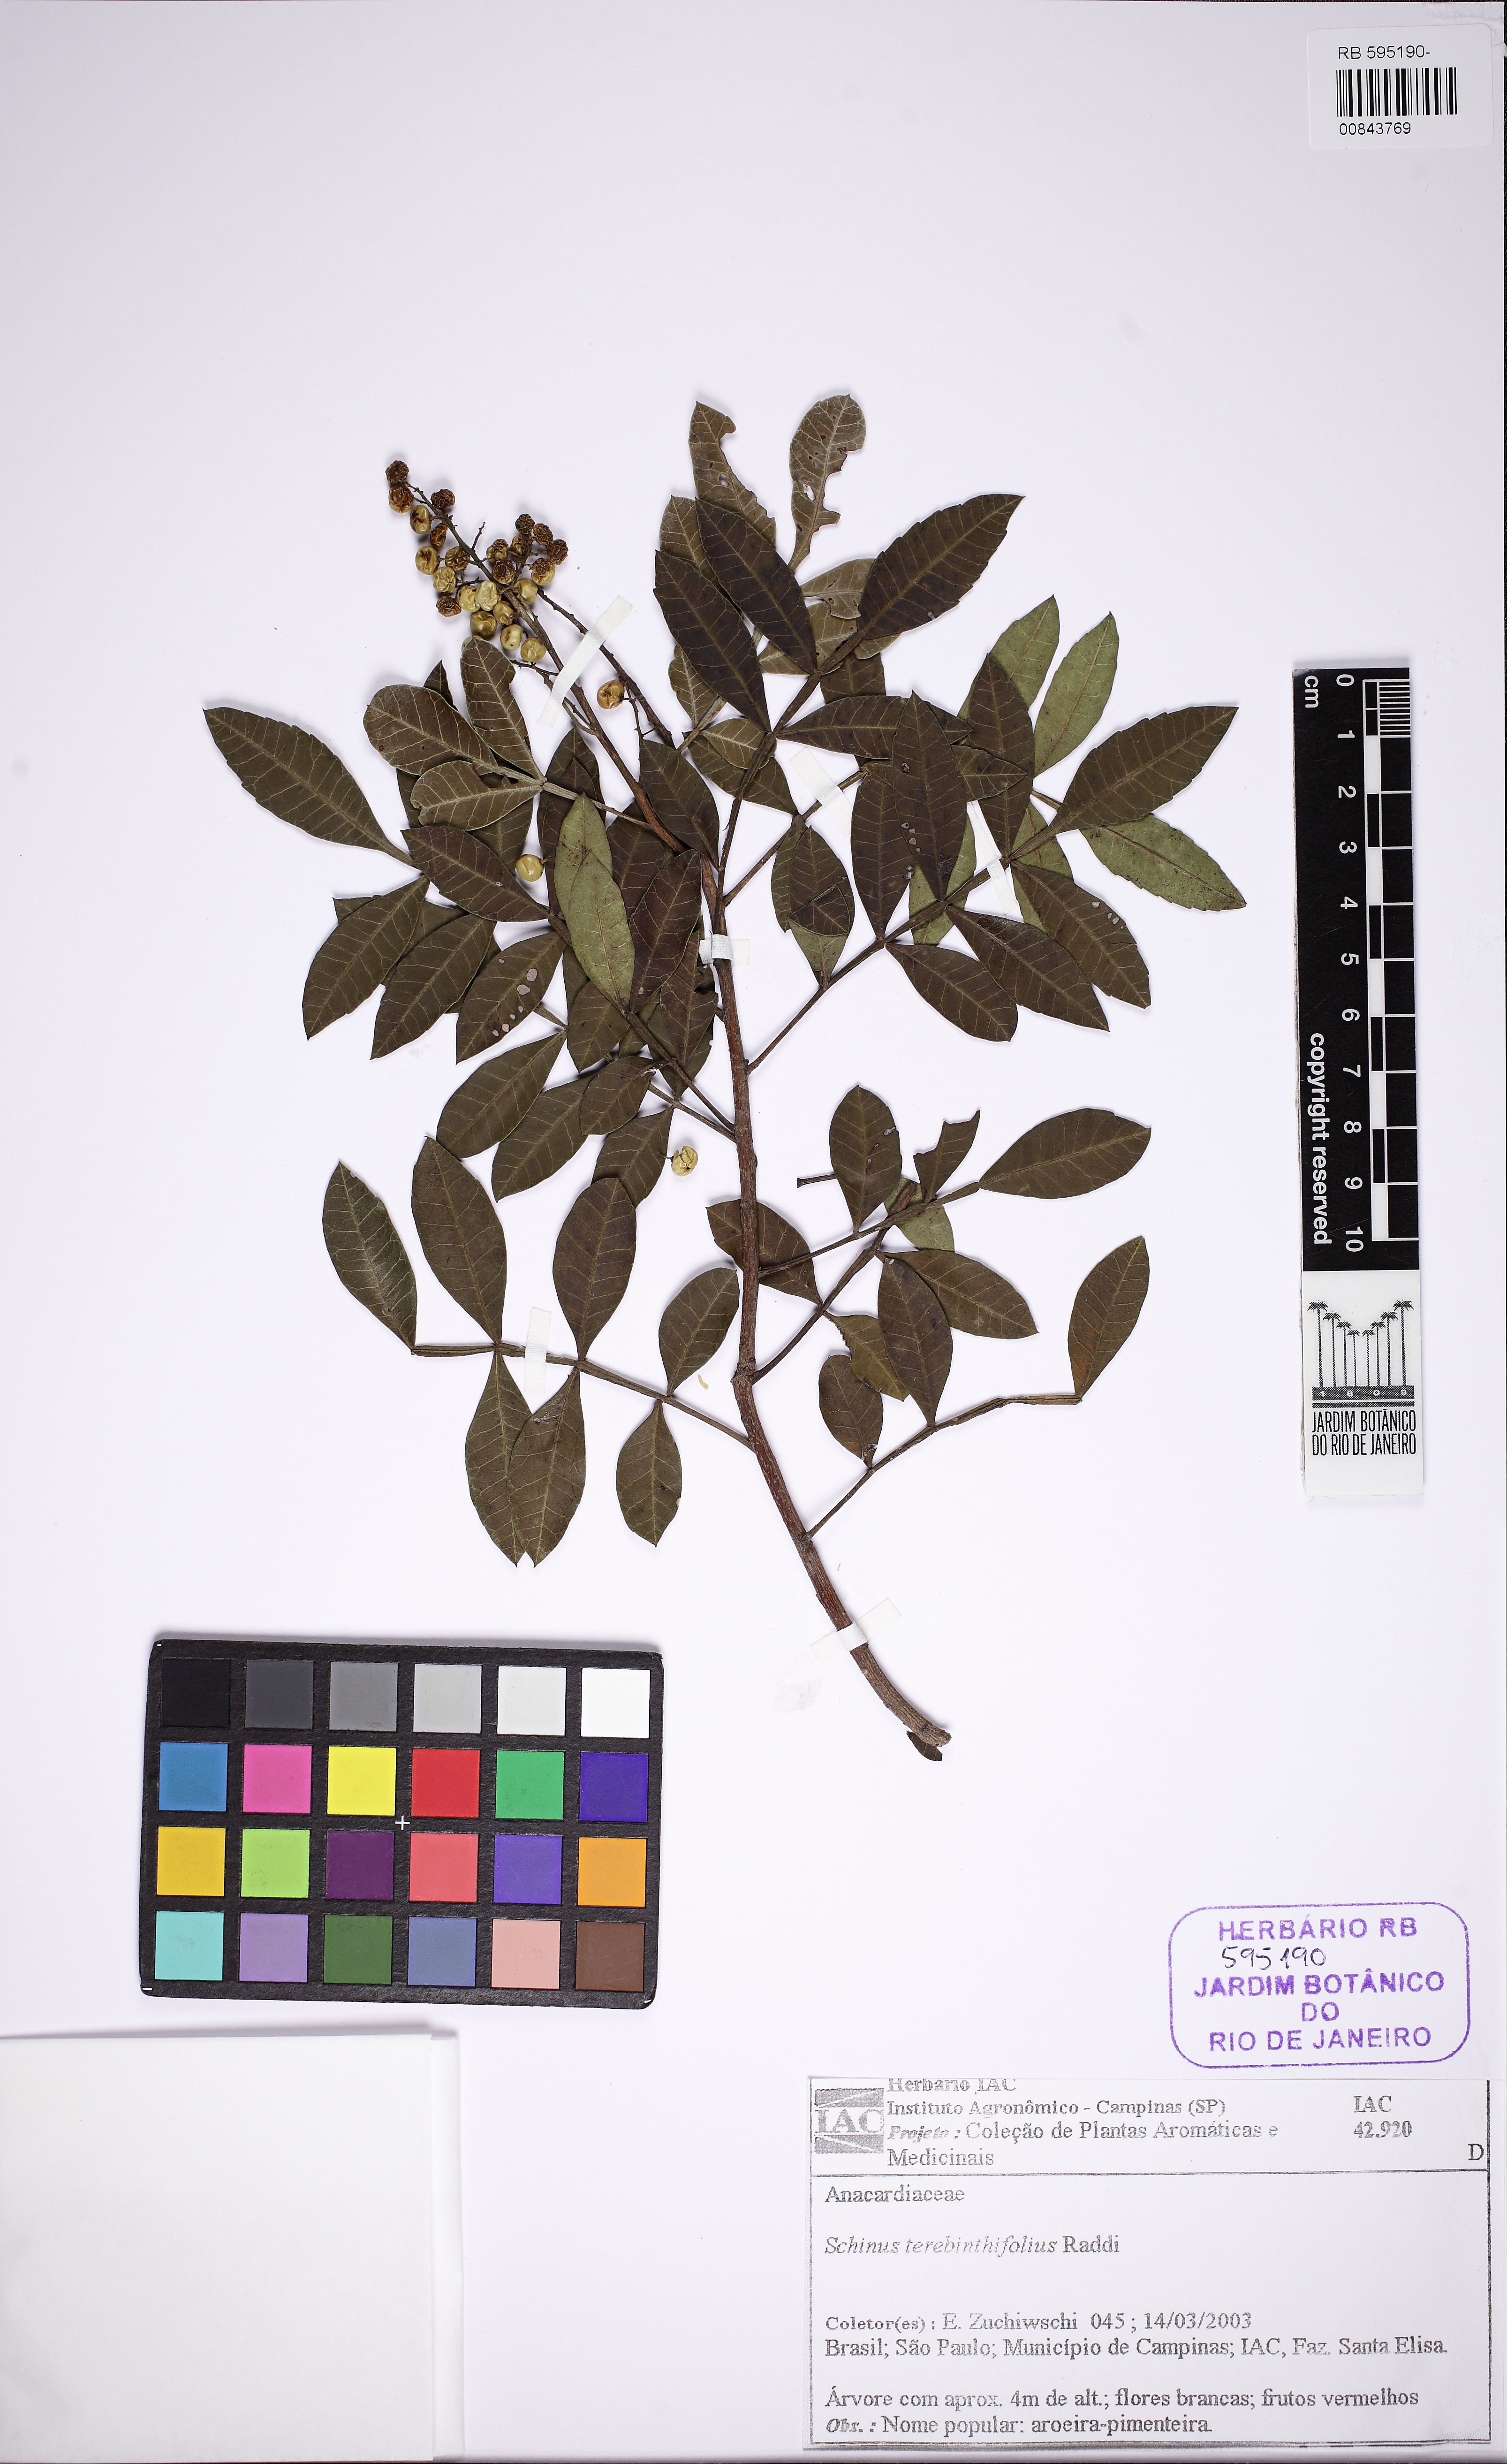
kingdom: Plantae
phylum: Tracheophyta
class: Magnoliopsida
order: Sapindales
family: Anacardiaceae
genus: Schinus
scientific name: Schinus terebinthifolia
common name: Brazilian peppertree
